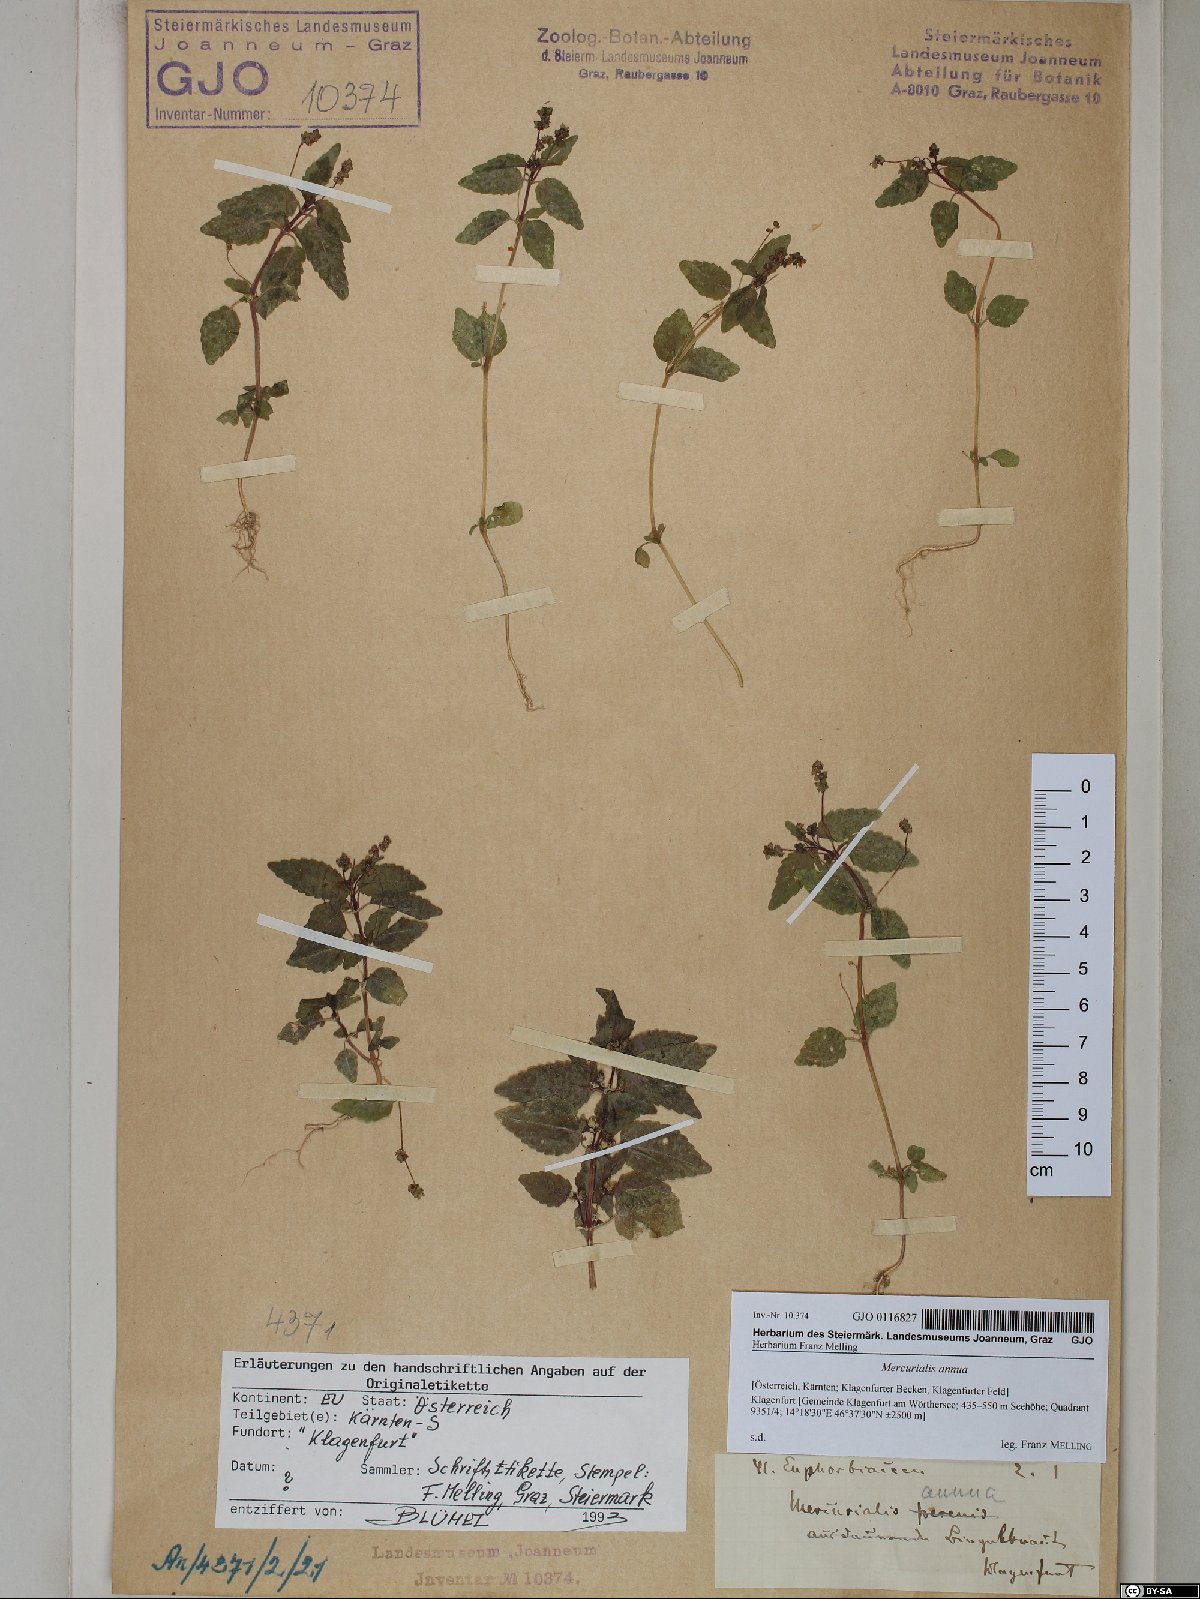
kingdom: Plantae
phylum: Tracheophyta
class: Magnoliopsida
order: Malpighiales
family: Euphorbiaceae
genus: Mercurialis
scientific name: Mercurialis annua
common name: Annual mercury
